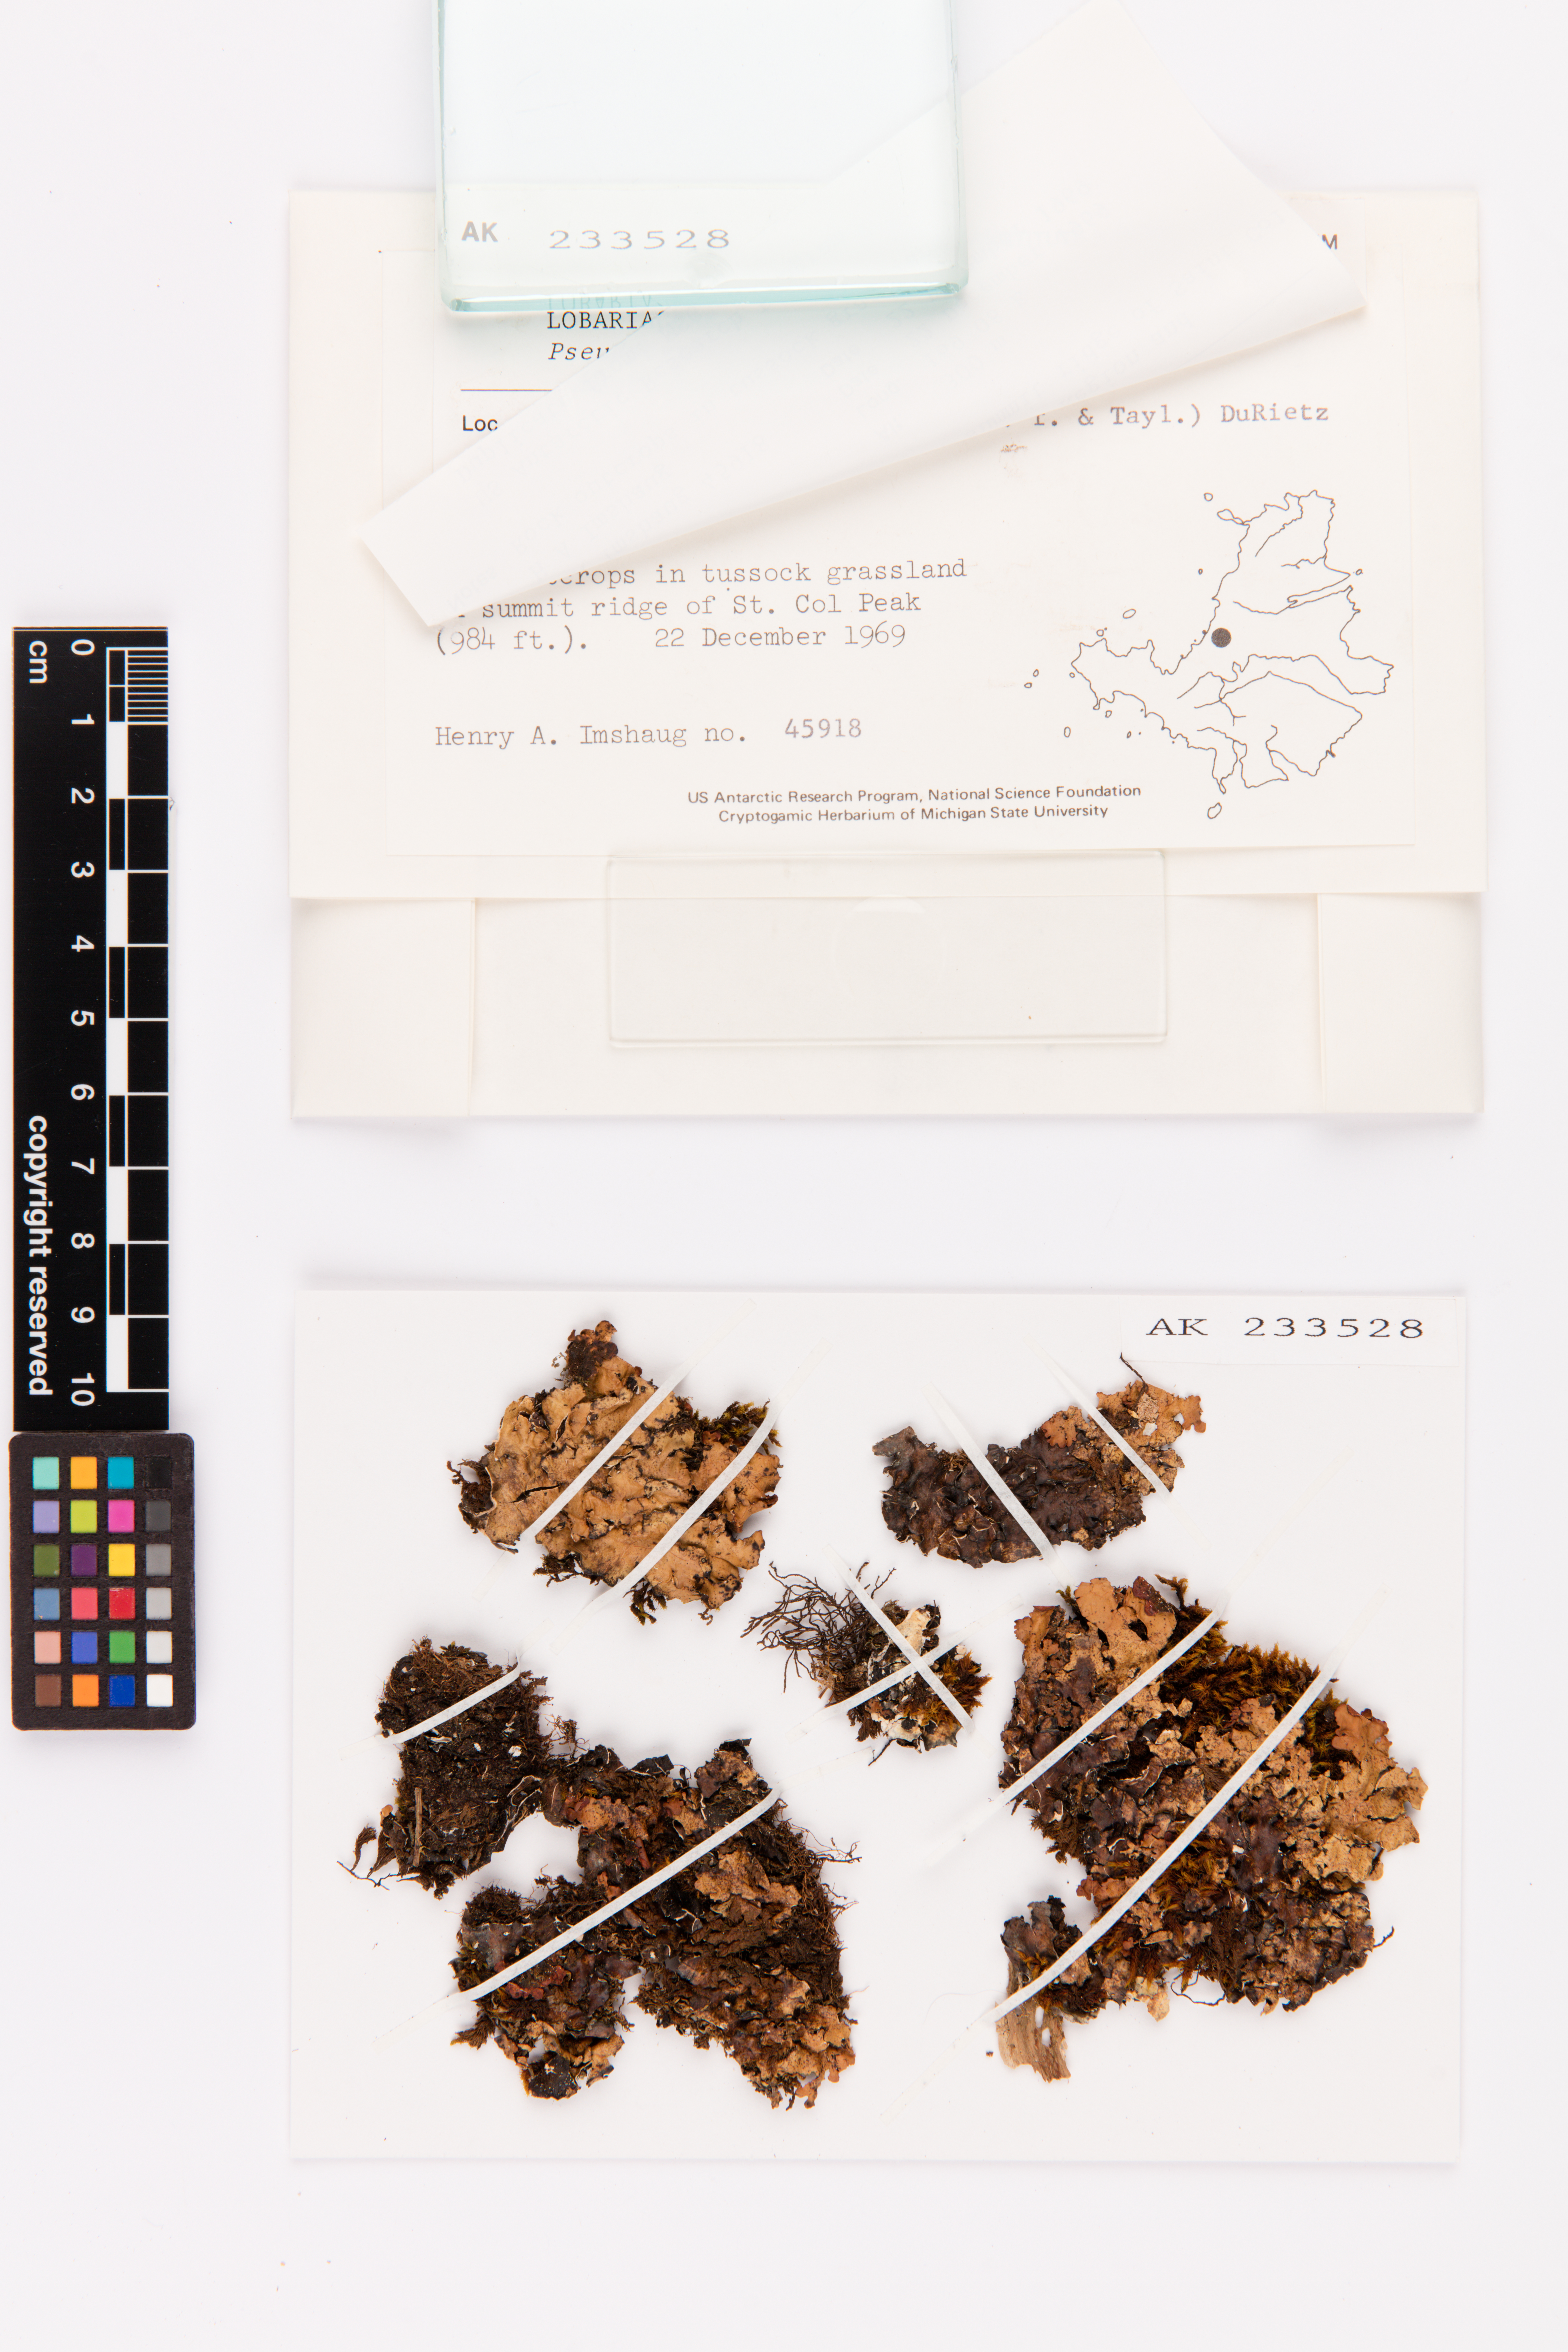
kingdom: Fungi
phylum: Ascomycota
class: Lecanoromycetes
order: Peltigerales
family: Lobariaceae
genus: Pseudocyphellaria
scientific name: Pseudocyphellaria chloroleuca
